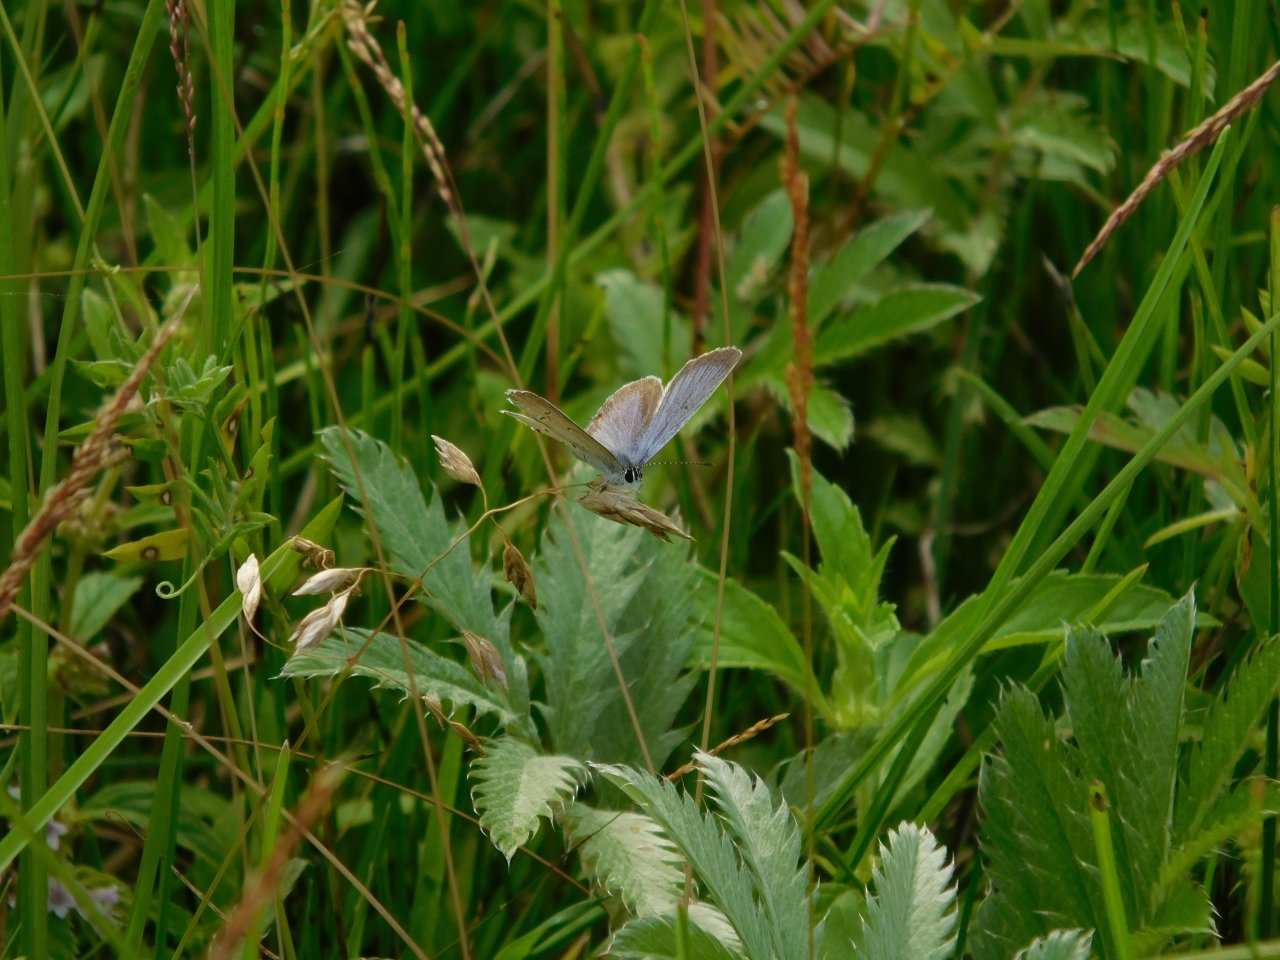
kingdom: Animalia
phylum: Arthropoda
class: Insecta
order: Lepidoptera
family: Lycaenidae
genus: Elkalyce
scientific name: Elkalyce comyntas
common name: Eastern Tailed-Blue
